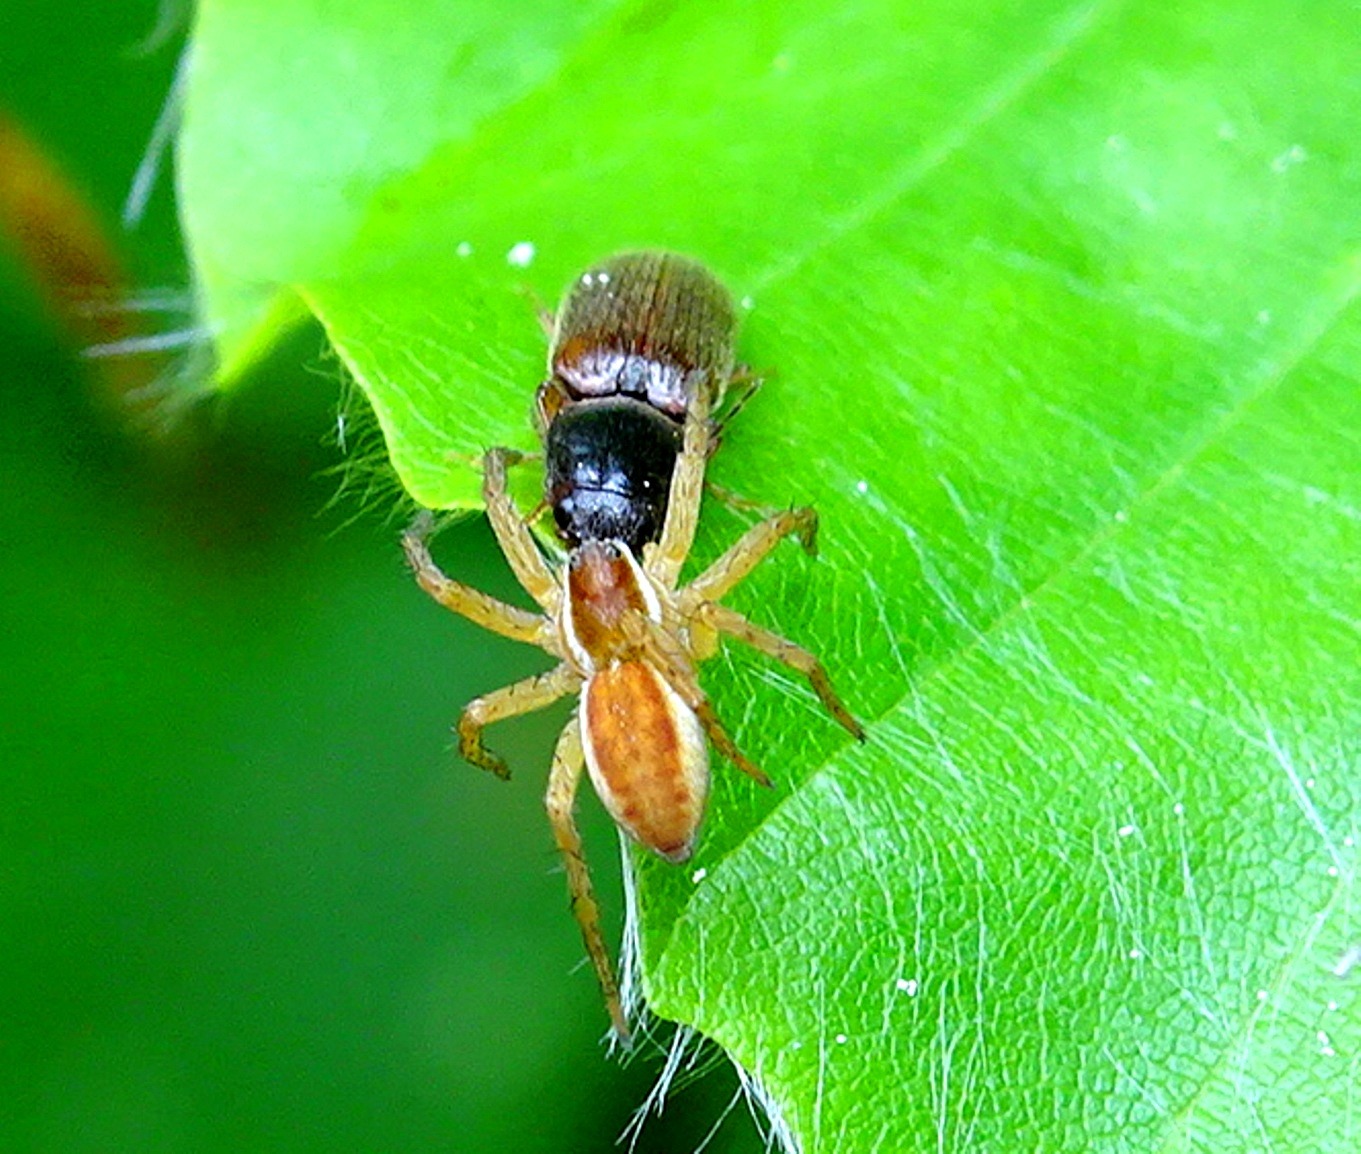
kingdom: Animalia
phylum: Arthropoda
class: Arachnida
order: Araneae
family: Pisauridae
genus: Dolomedes
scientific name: Dolomedes
